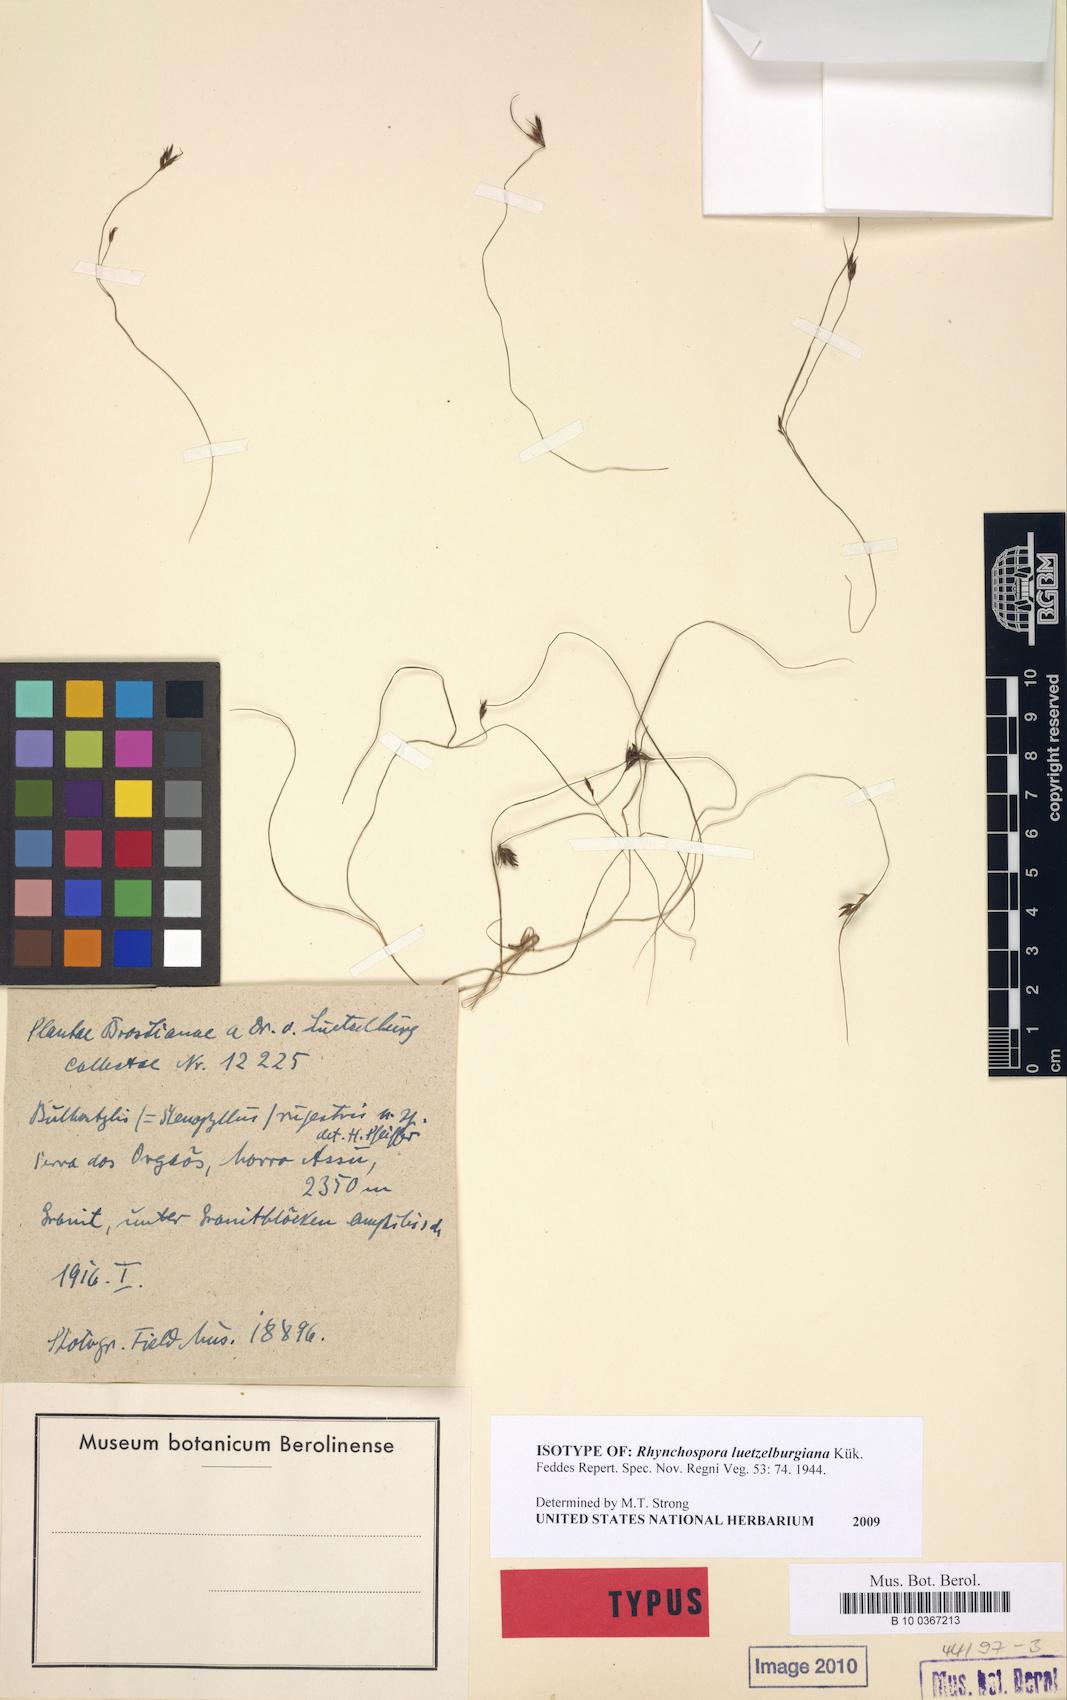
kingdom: Plantae
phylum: Tracheophyta
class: Liliopsida
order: Poales
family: Cyperaceae
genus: Rhynchospora
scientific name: Rhynchospora luetzelburgiana
